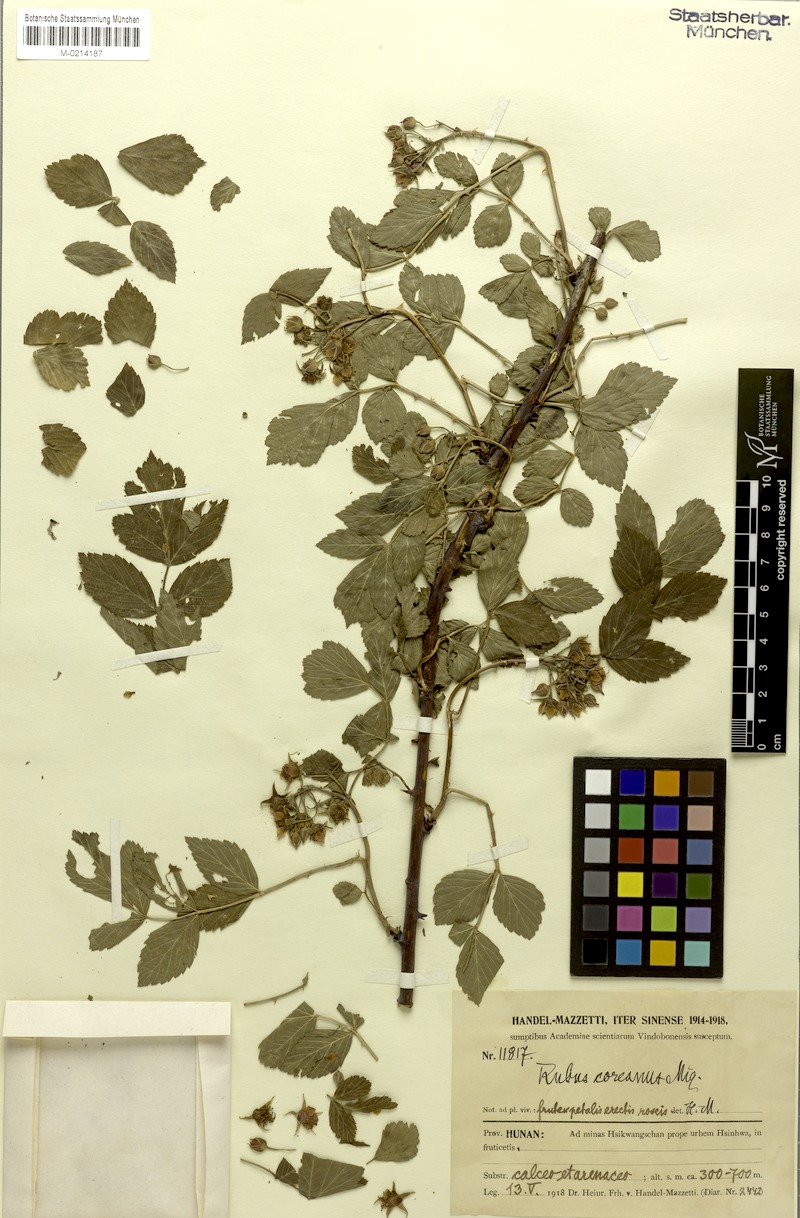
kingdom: Plantae
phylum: Tracheophyta
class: Magnoliopsida
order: Rosales
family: Rosaceae
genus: Rubus
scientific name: Rubus coreanus
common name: Korean bramble
